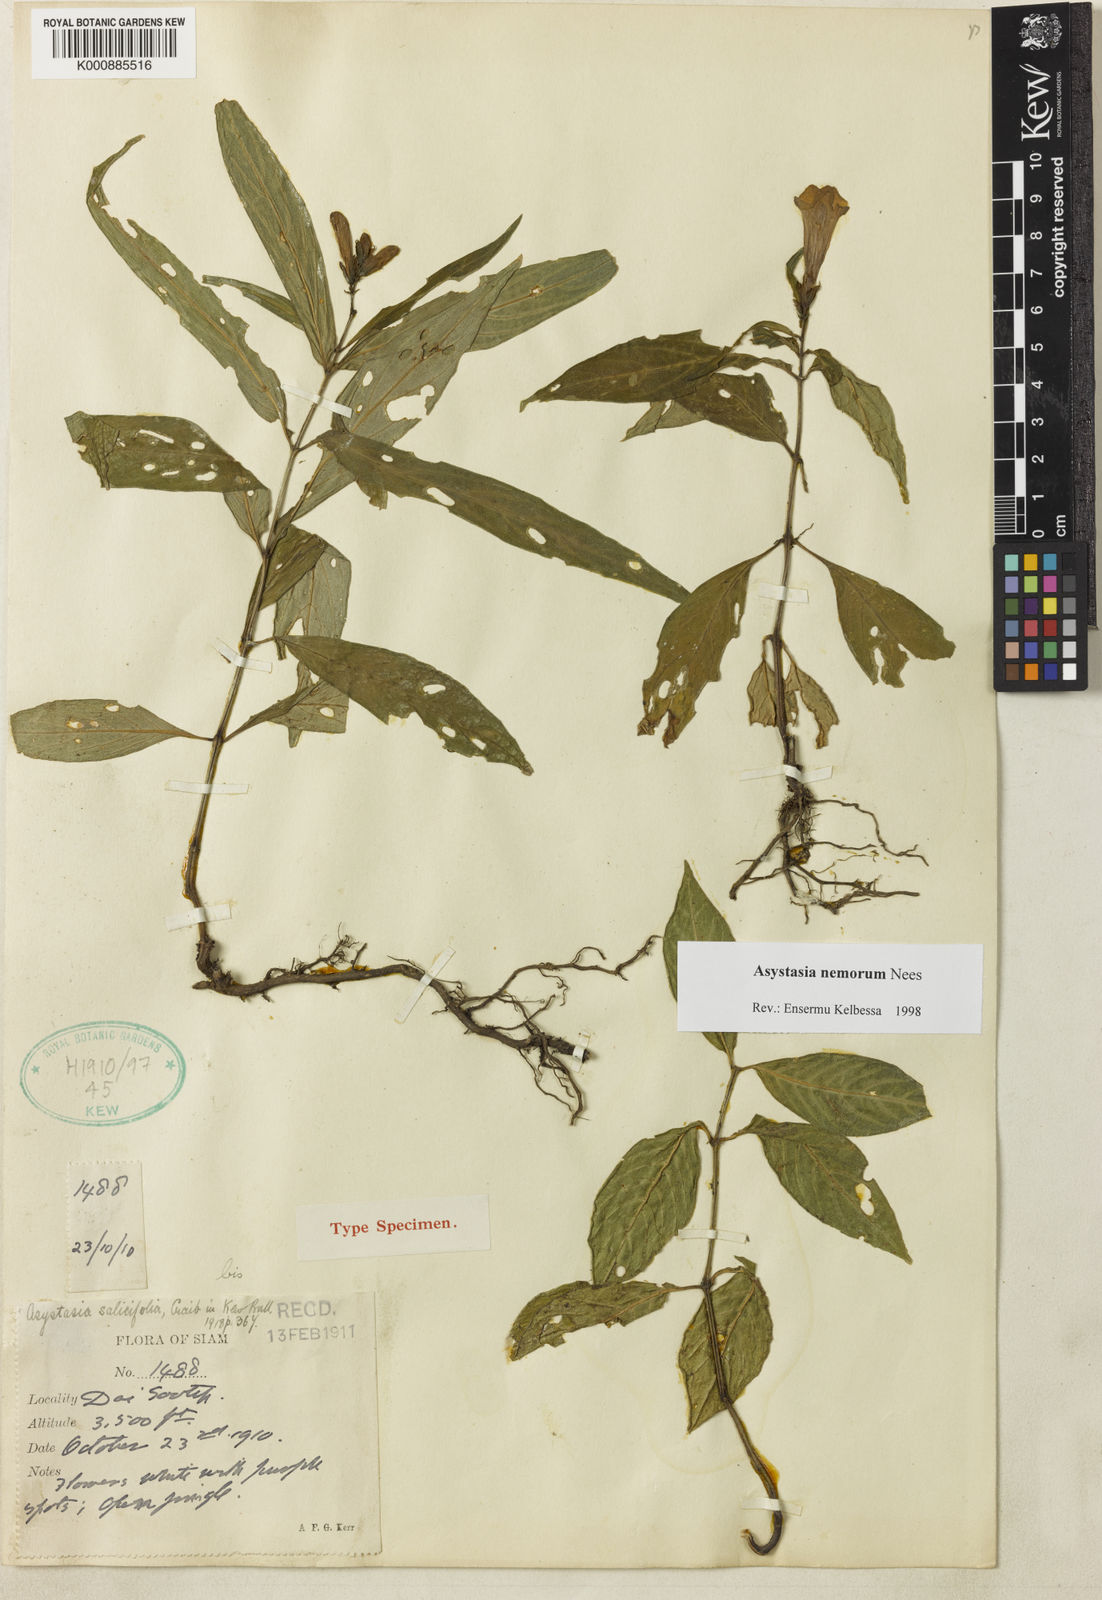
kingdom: Plantae
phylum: Tracheophyta
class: Magnoliopsida
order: Lamiales
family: Acanthaceae
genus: Asystasia
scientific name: Asystasia nemorum
